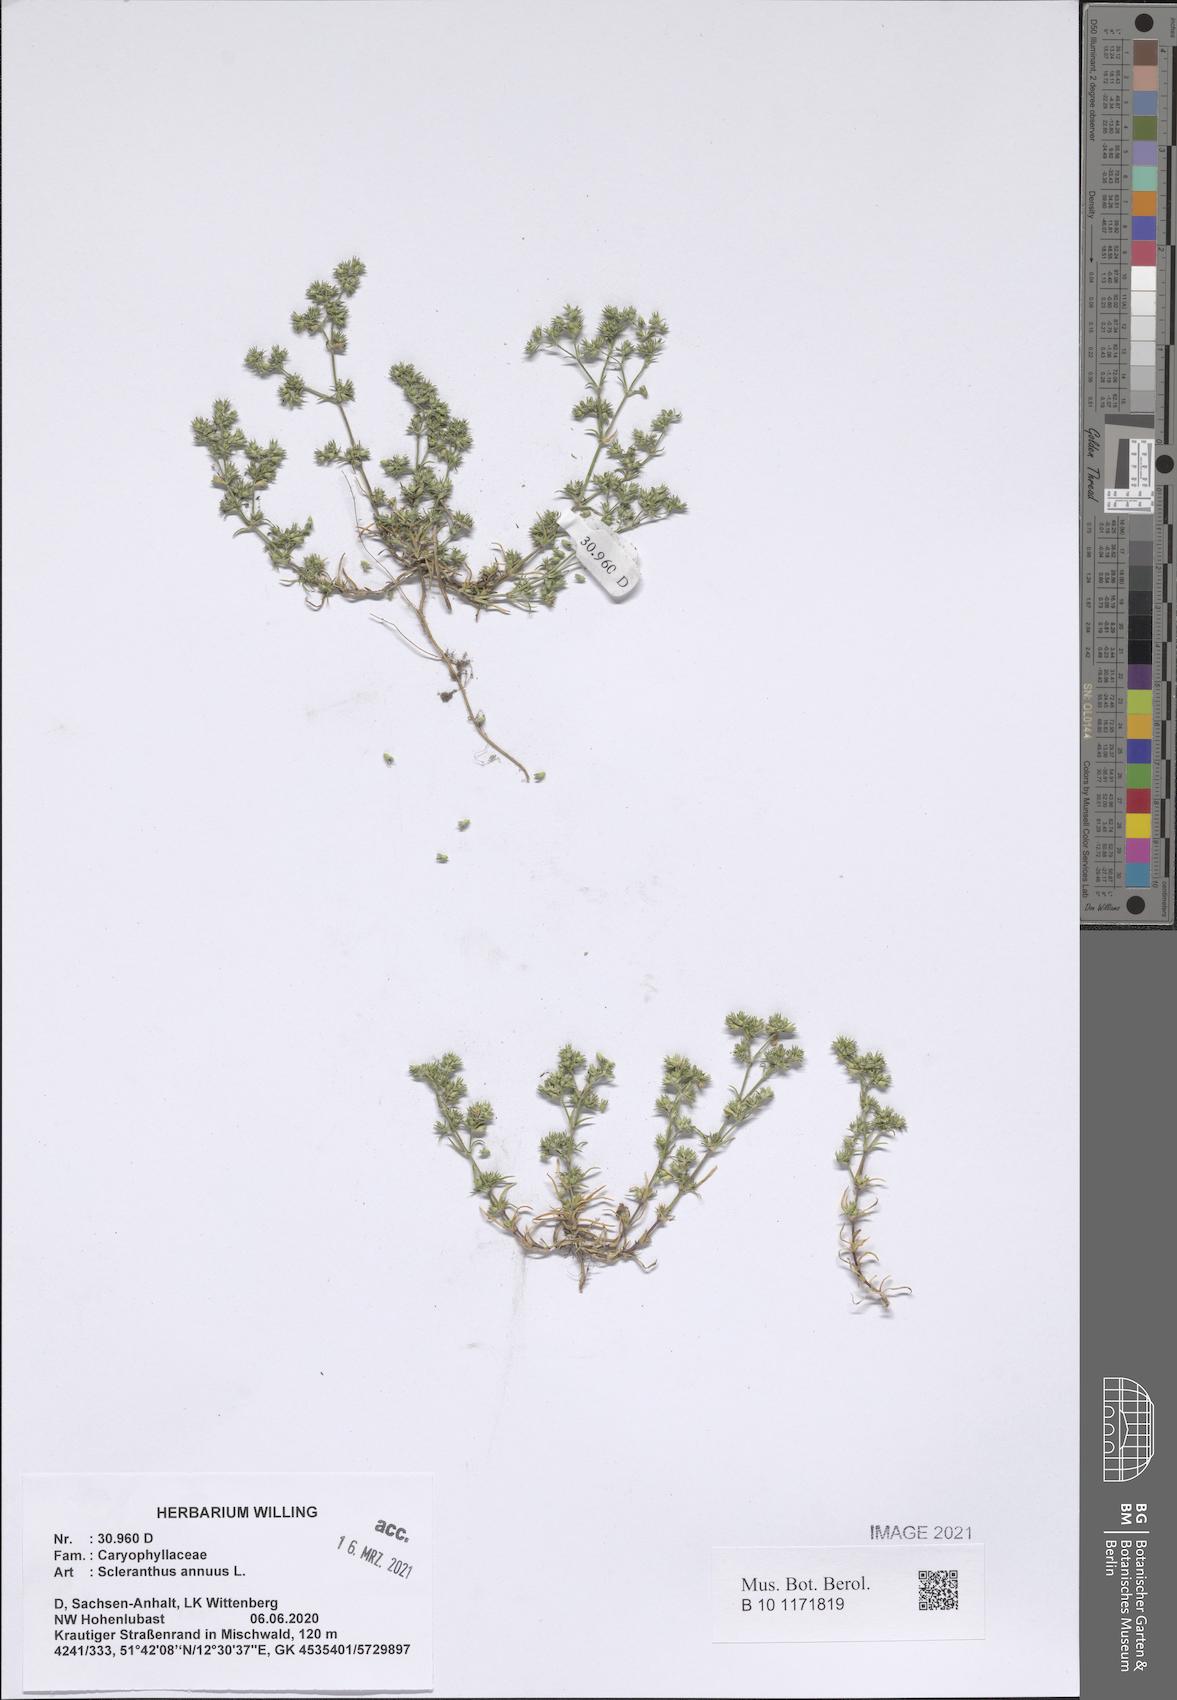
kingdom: Plantae
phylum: Tracheophyta
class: Magnoliopsida
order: Caryophyllales
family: Caryophyllaceae
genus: Scleranthus
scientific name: Scleranthus annuus
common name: Annual knawel
